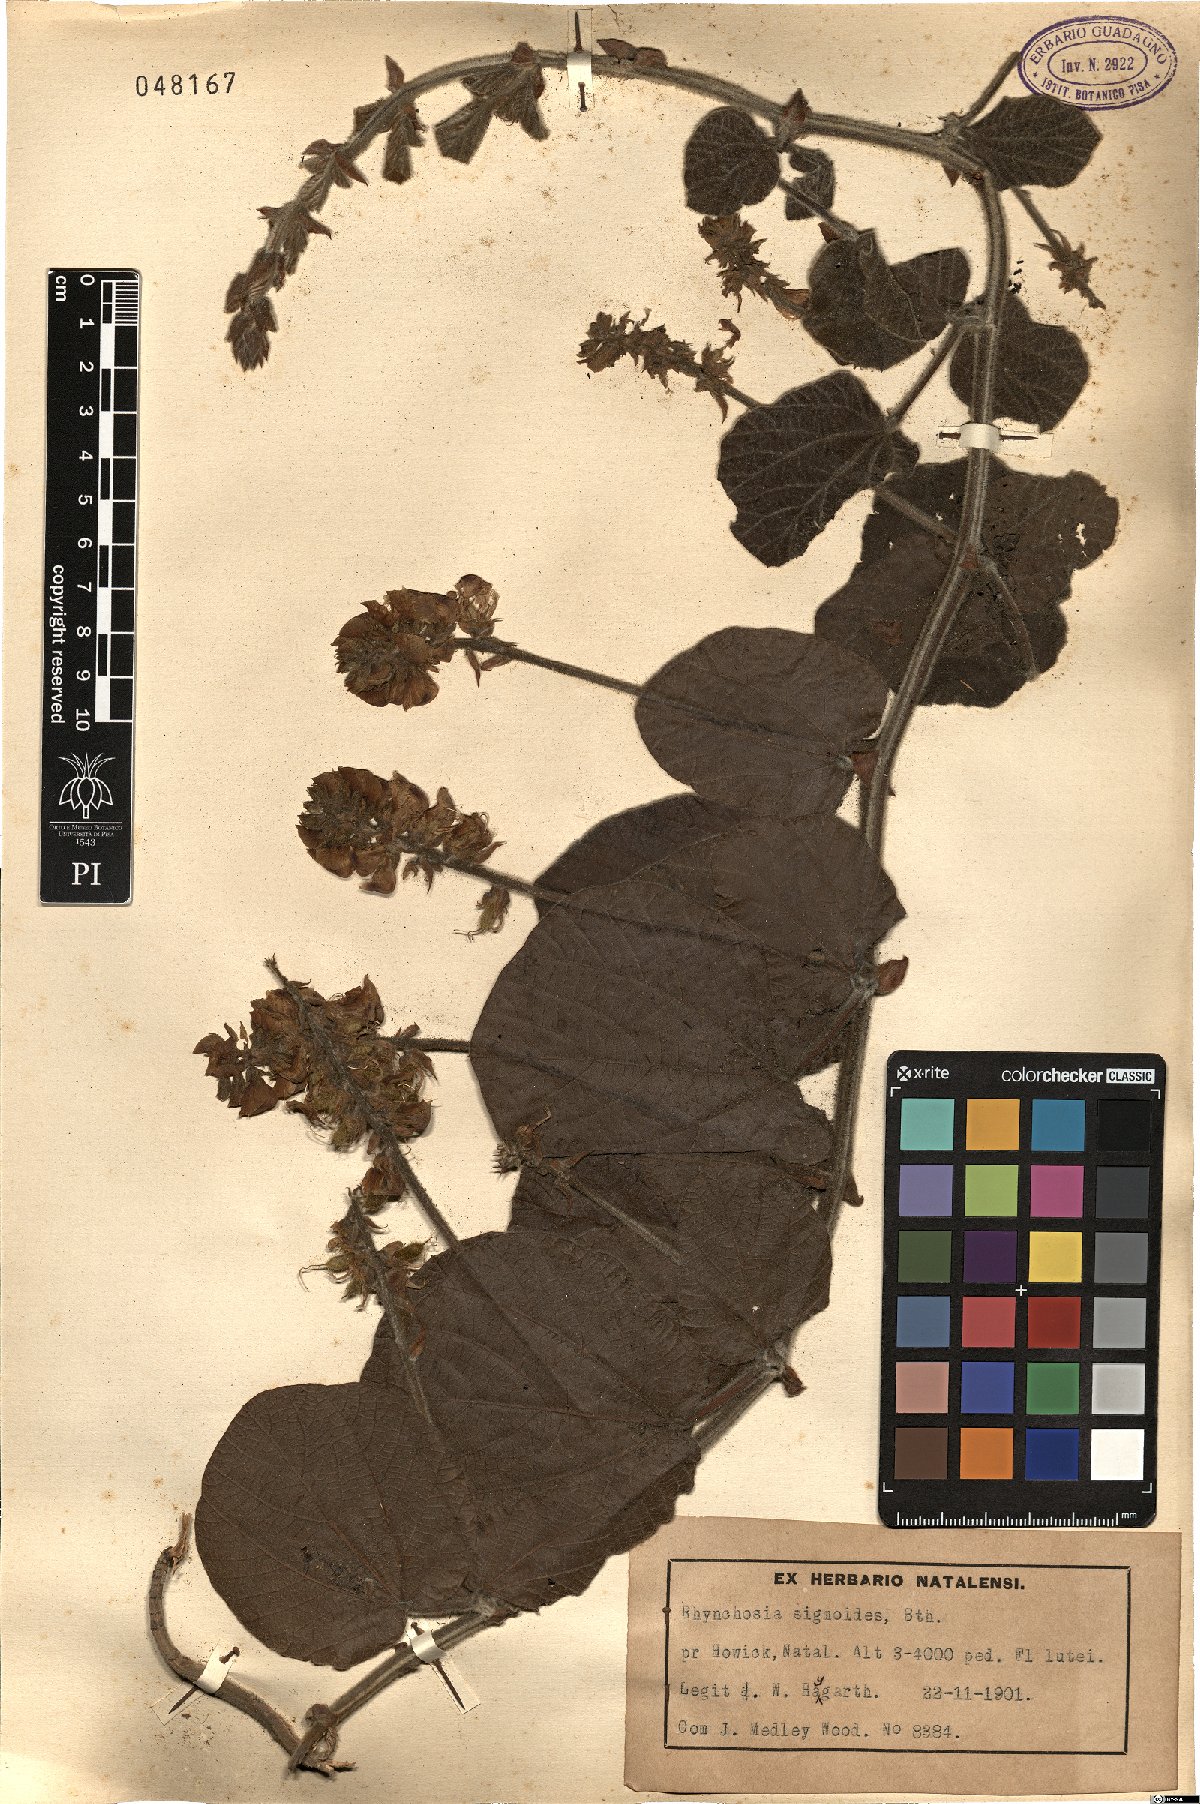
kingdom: Plantae
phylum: Tracheophyta
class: Magnoliopsida
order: Fabales
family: Fabaceae
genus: Rhynchosia
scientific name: Rhynchosia villosa
